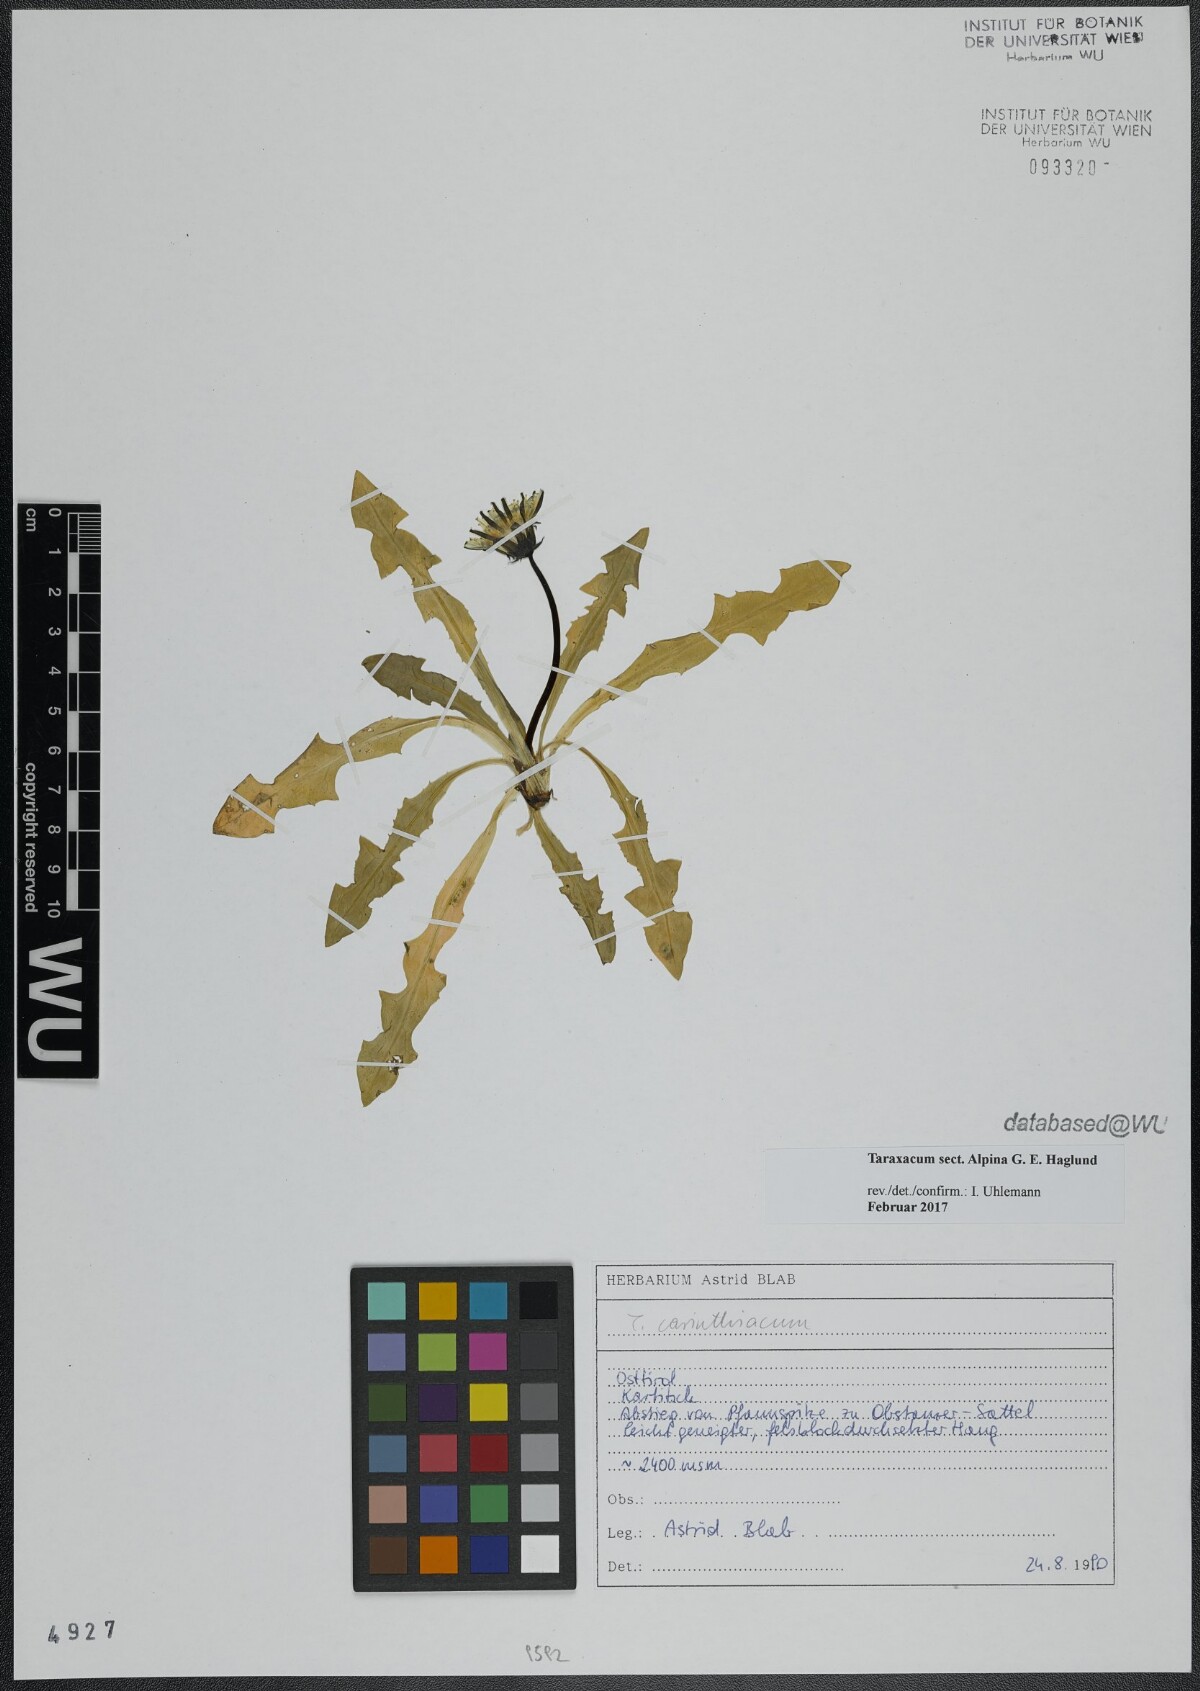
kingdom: Plantae
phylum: Tracheophyta
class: Magnoliopsida
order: Asterales
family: Asteraceae
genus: Taraxacum
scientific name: Taraxacum
